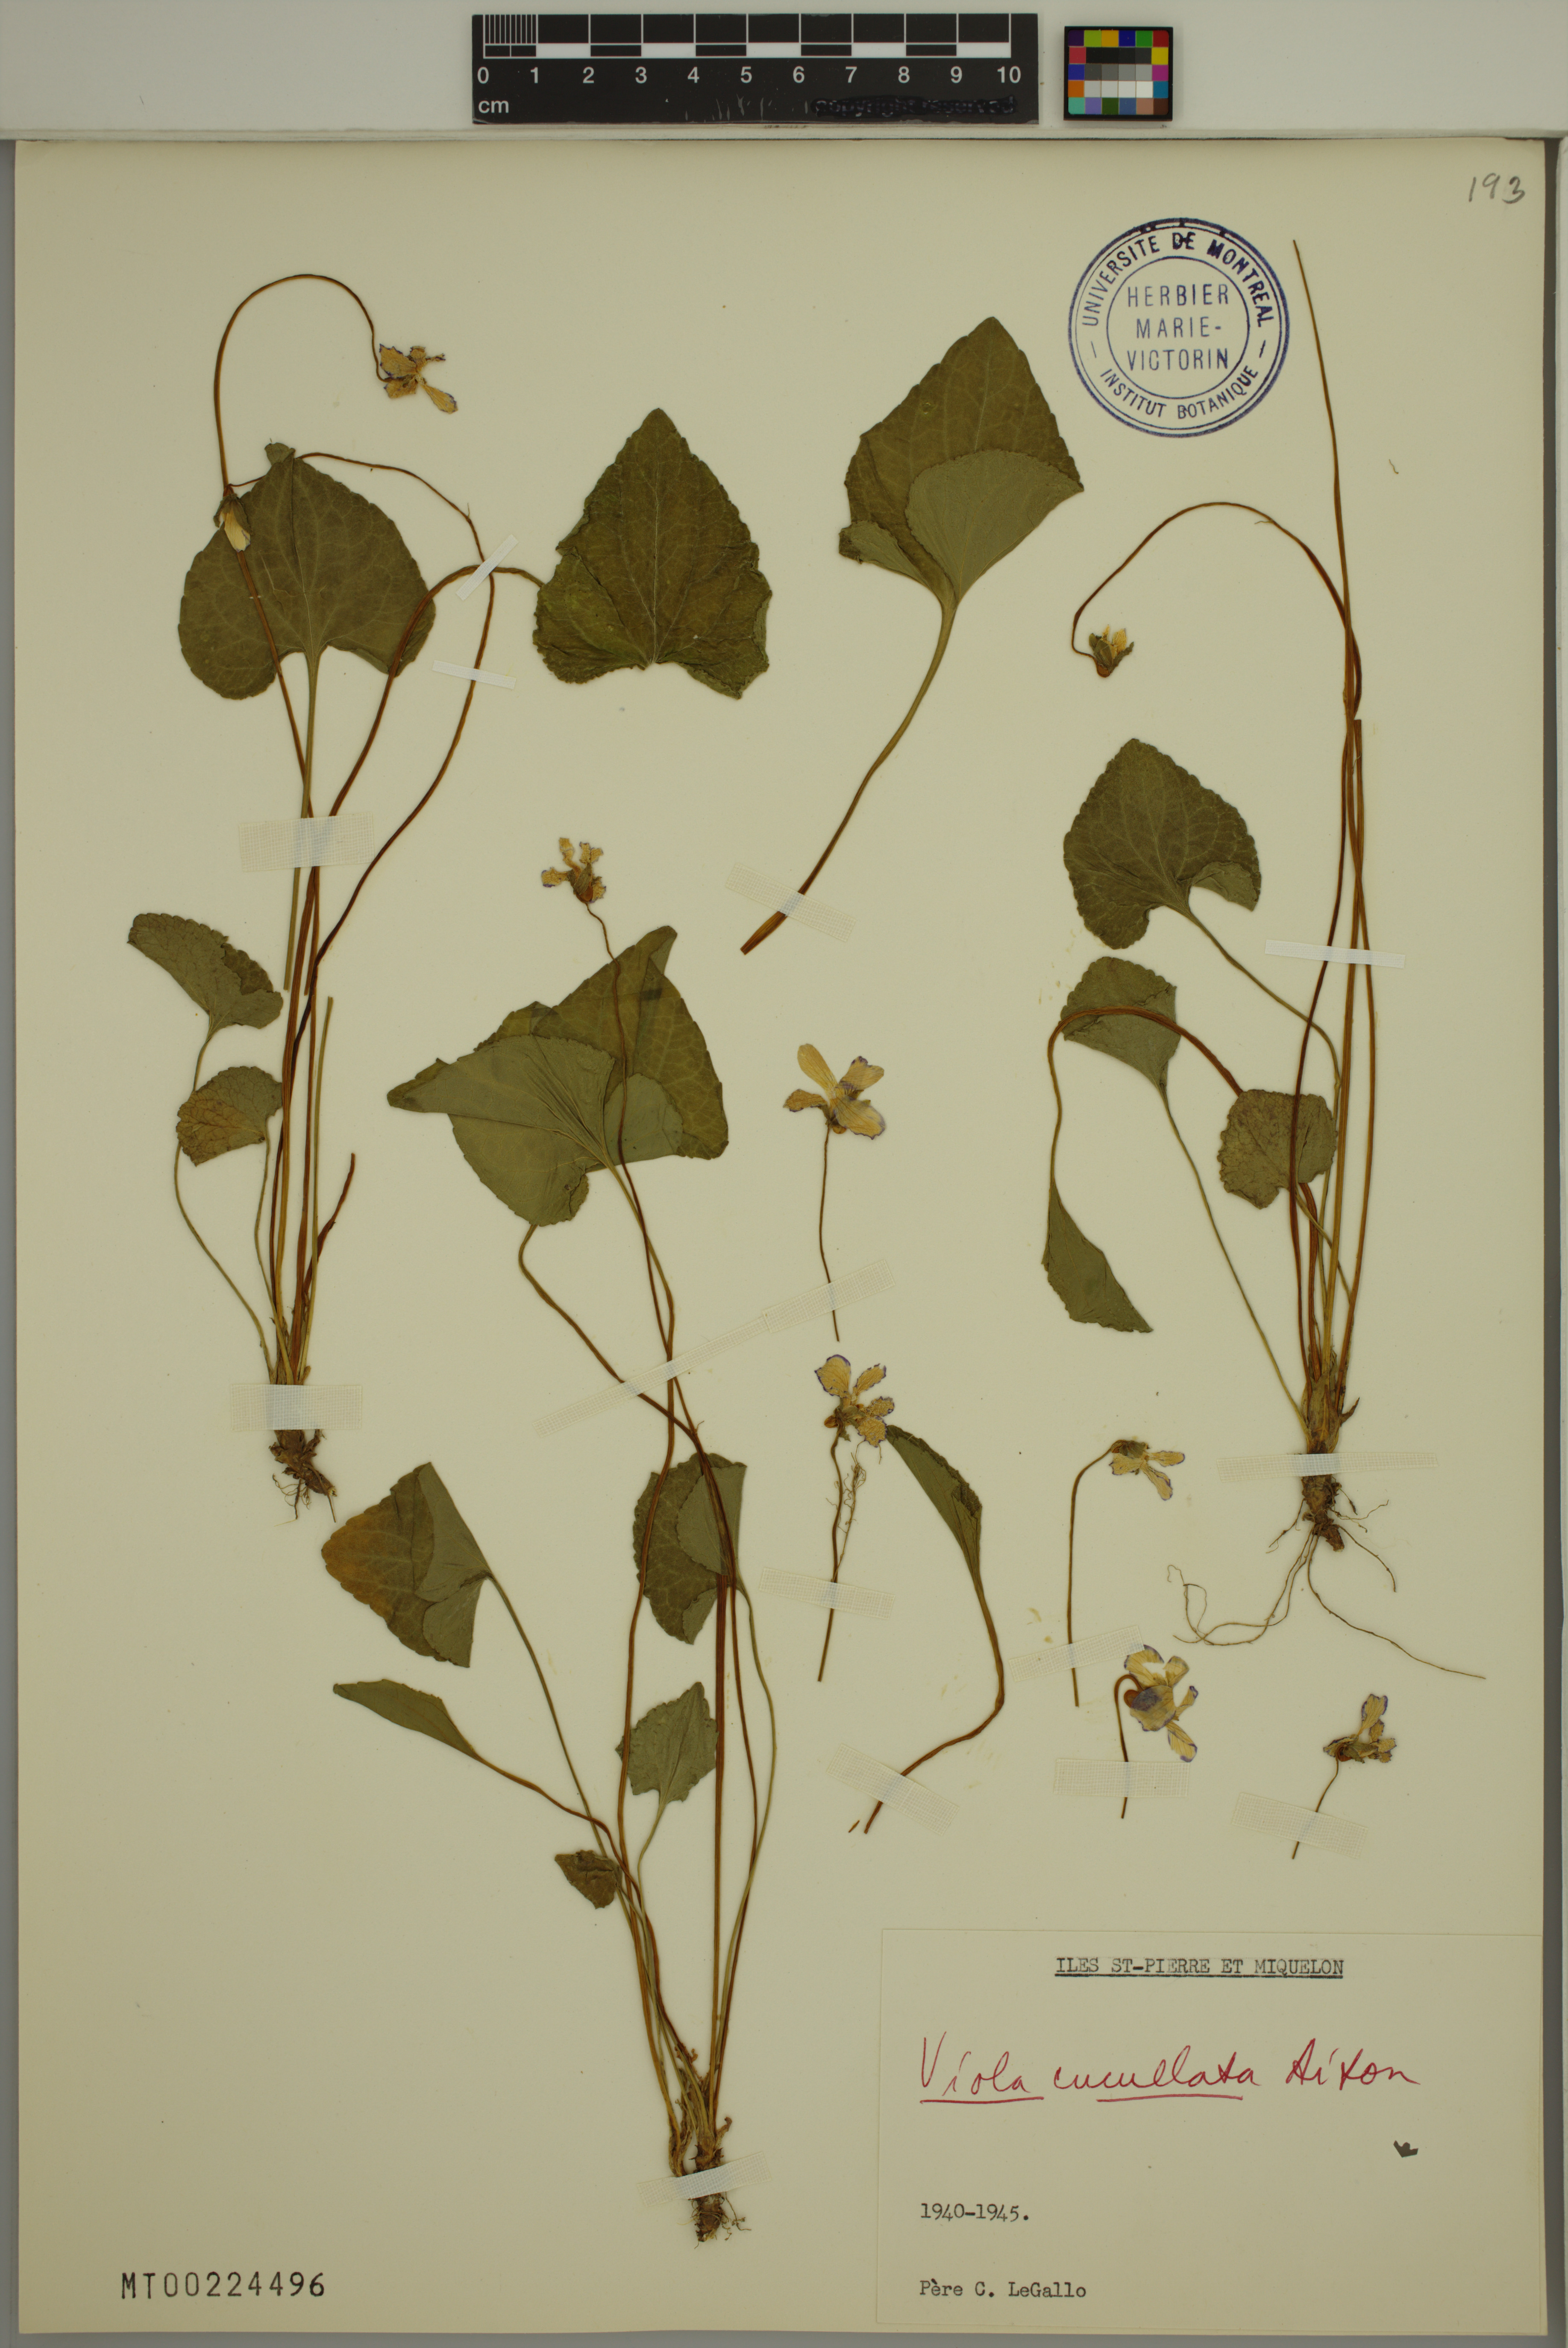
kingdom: Plantae
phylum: Tracheophyta
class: Magnoliopsida
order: Malpighiales
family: Violaceae
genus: Viola
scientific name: Viola cucullata
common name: Marsh blue violet
